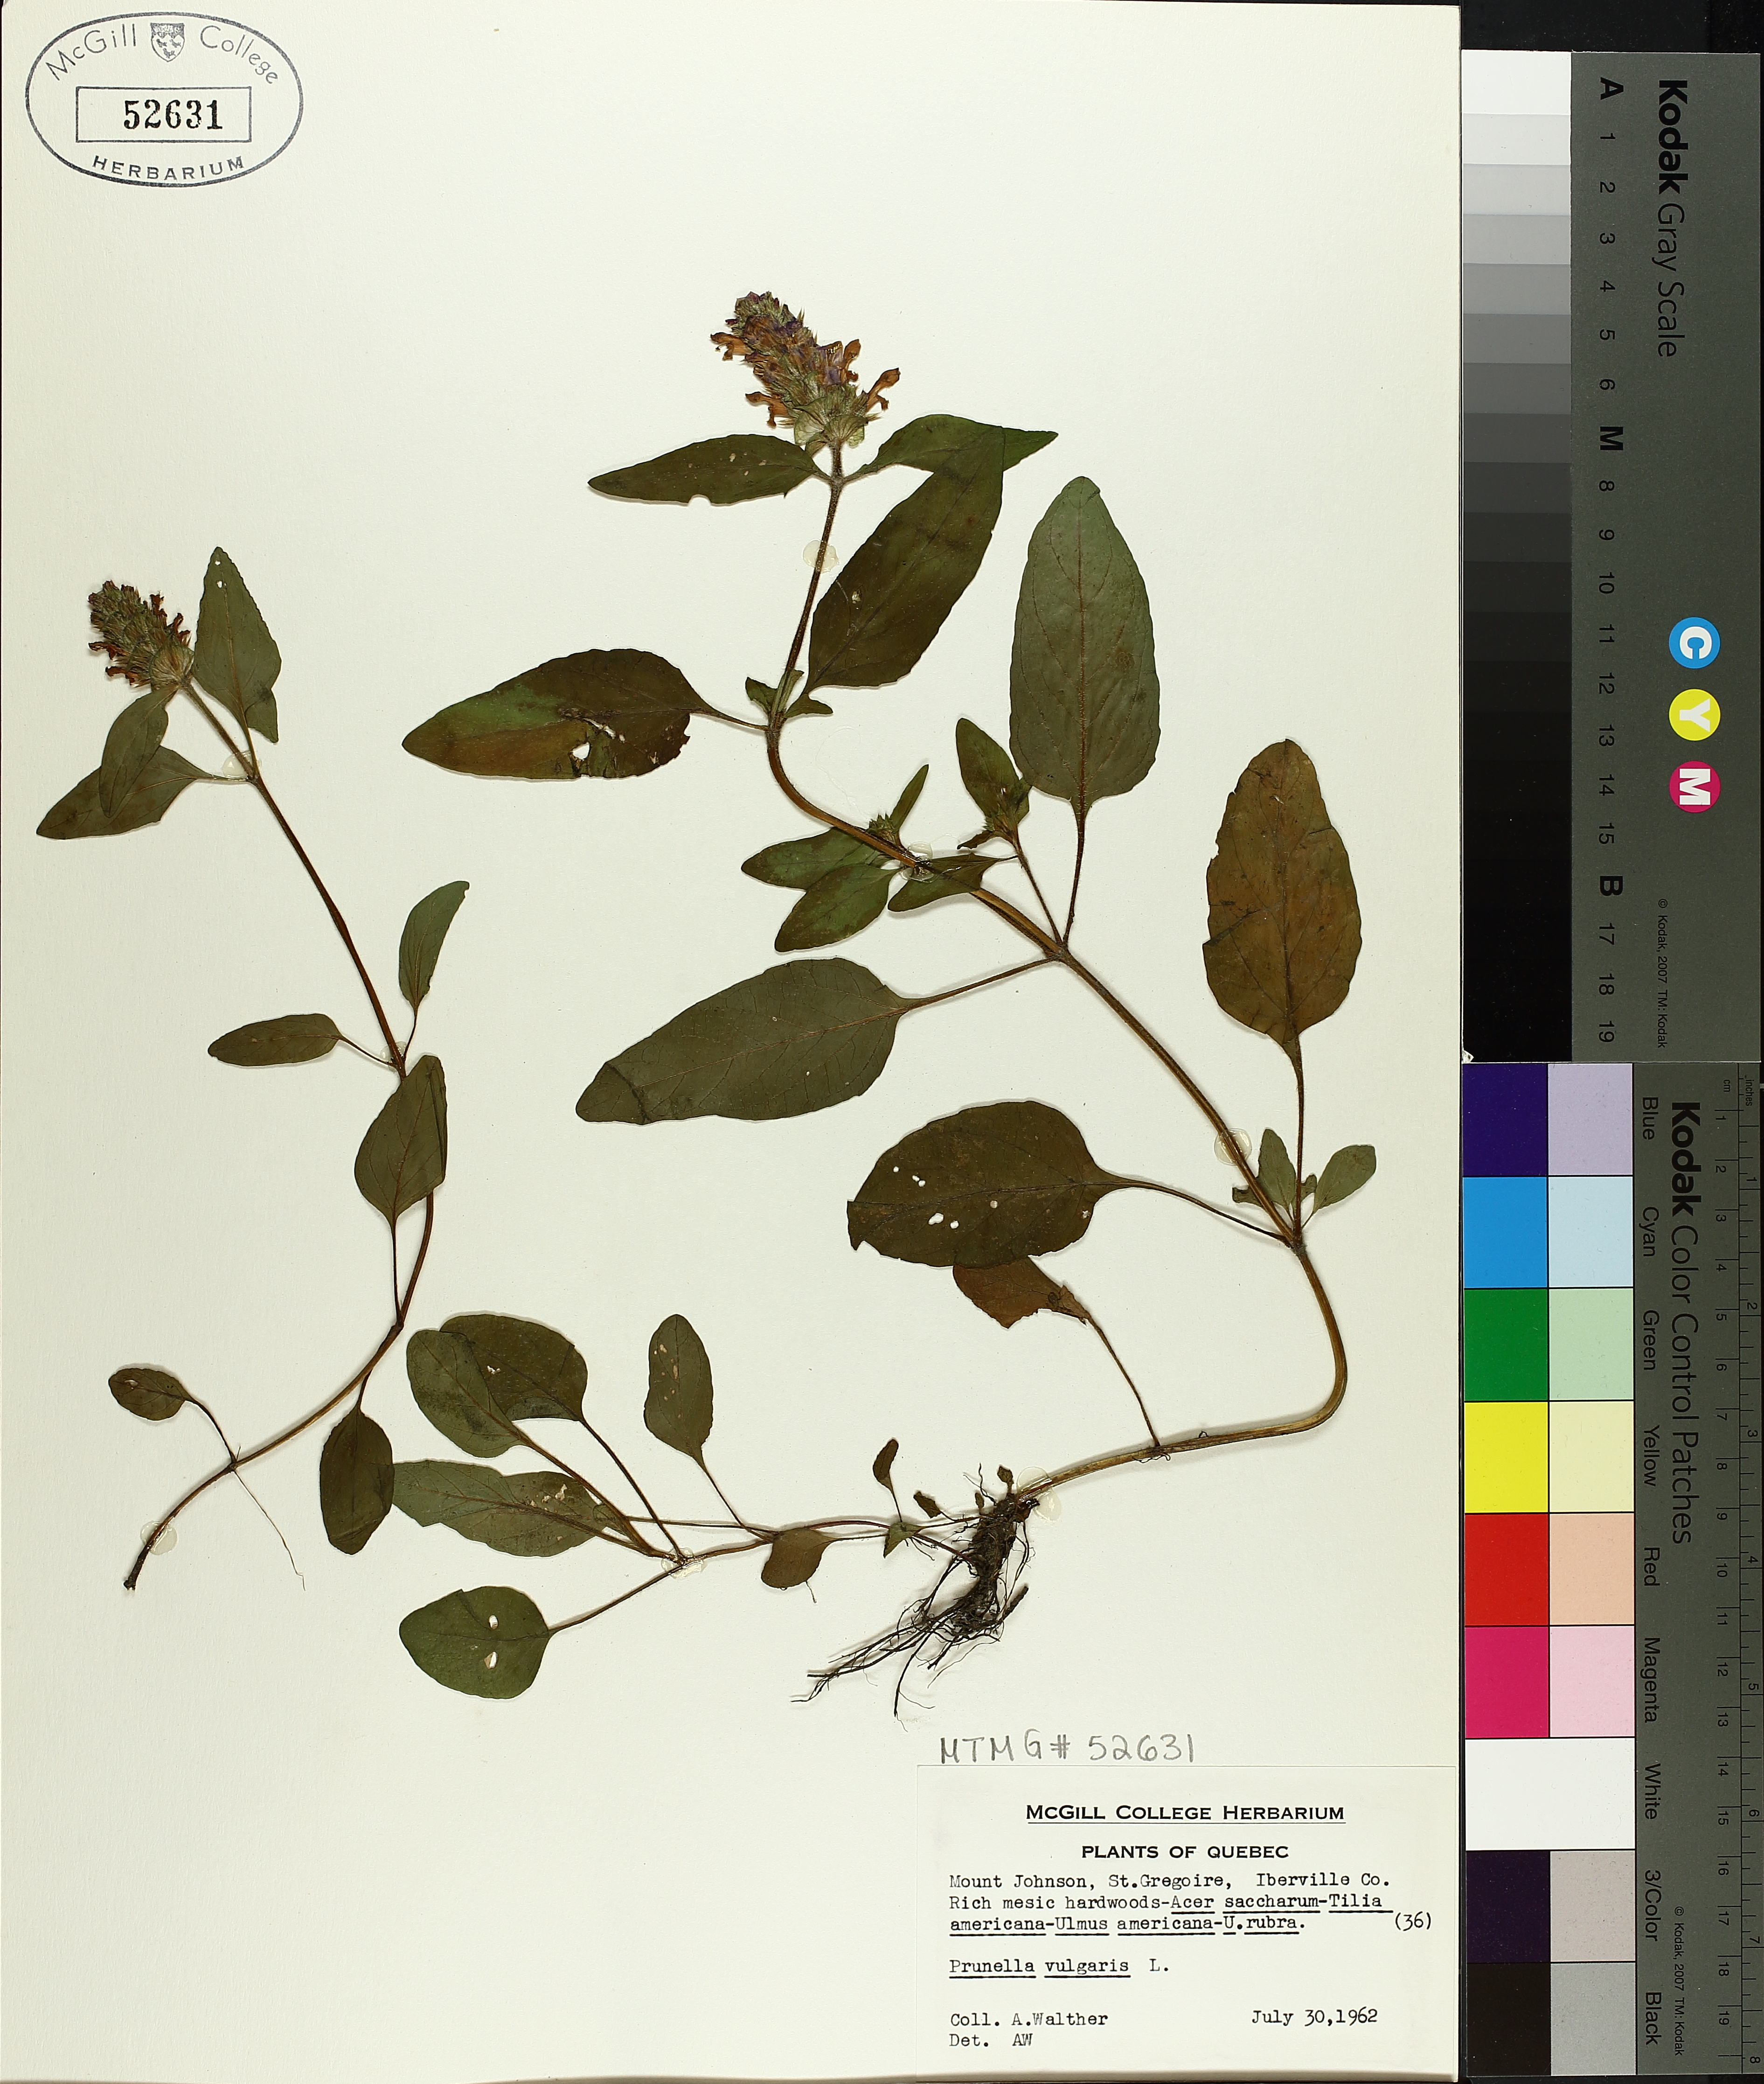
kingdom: Plantae
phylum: Tracheophyta
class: Magnoliopsida
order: Lamiales
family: Lamiaceae
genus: Prunella
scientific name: Prunella vulgaris
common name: Heal-all
